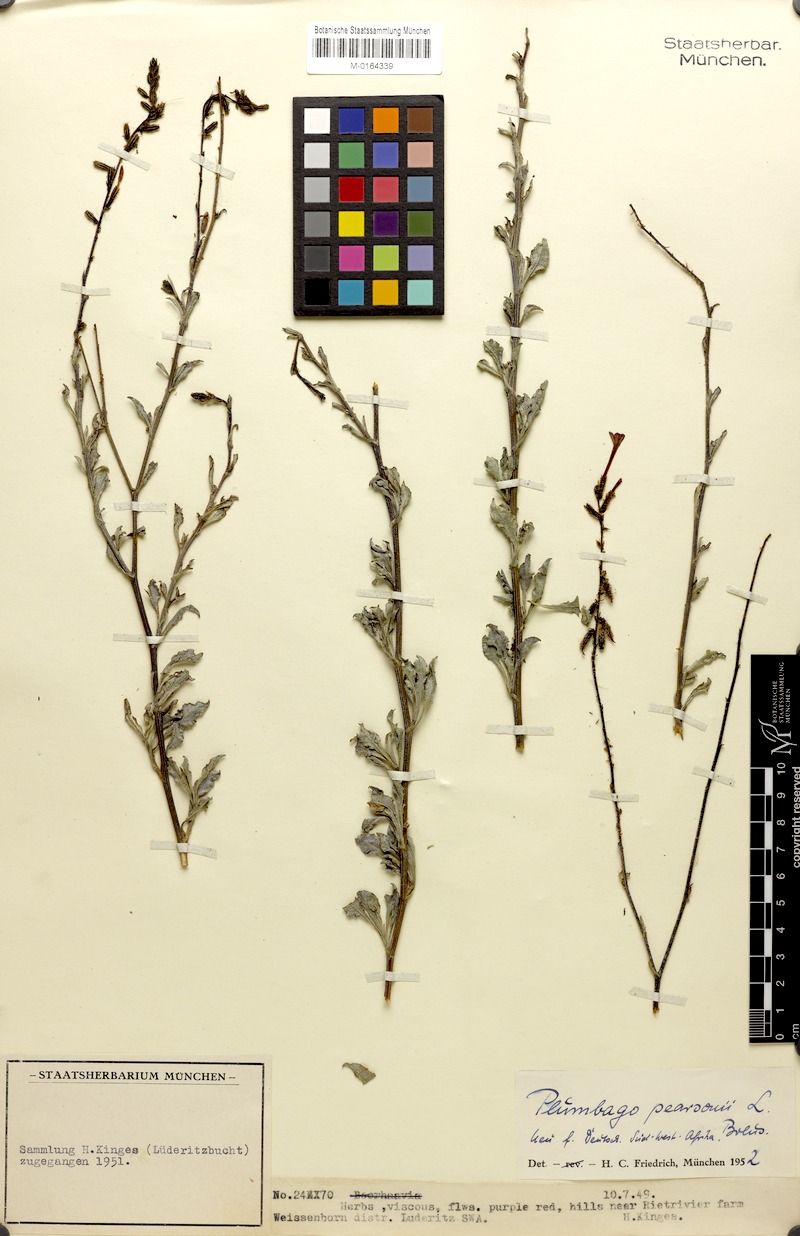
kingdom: Plantae
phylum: Tracheophyta
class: Magnoliopsida
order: Caryophyllales
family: Plumbaginaceae
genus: Plumbago
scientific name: Plumbago aphylla
